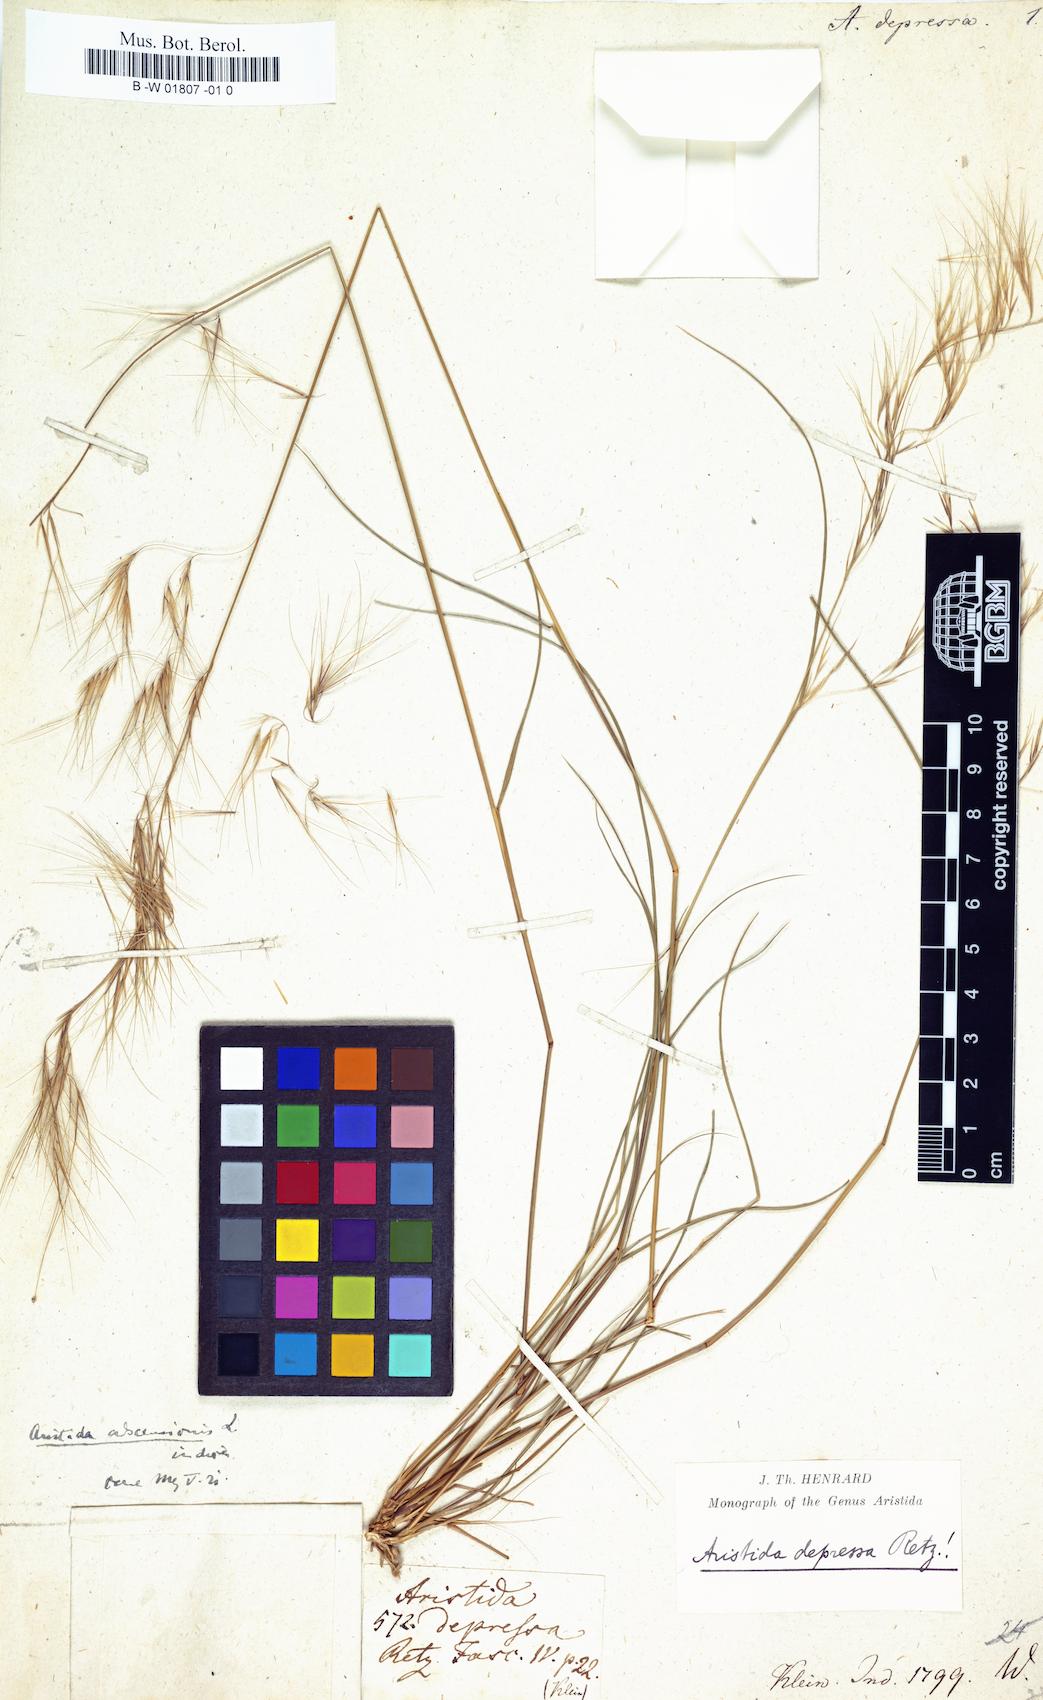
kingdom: Plantae
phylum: Tracheophyta
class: Liliopsida
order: Poales
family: Poaceae
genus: Aristida
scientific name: Aristida adscensionis
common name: Sixweeks threeawn
